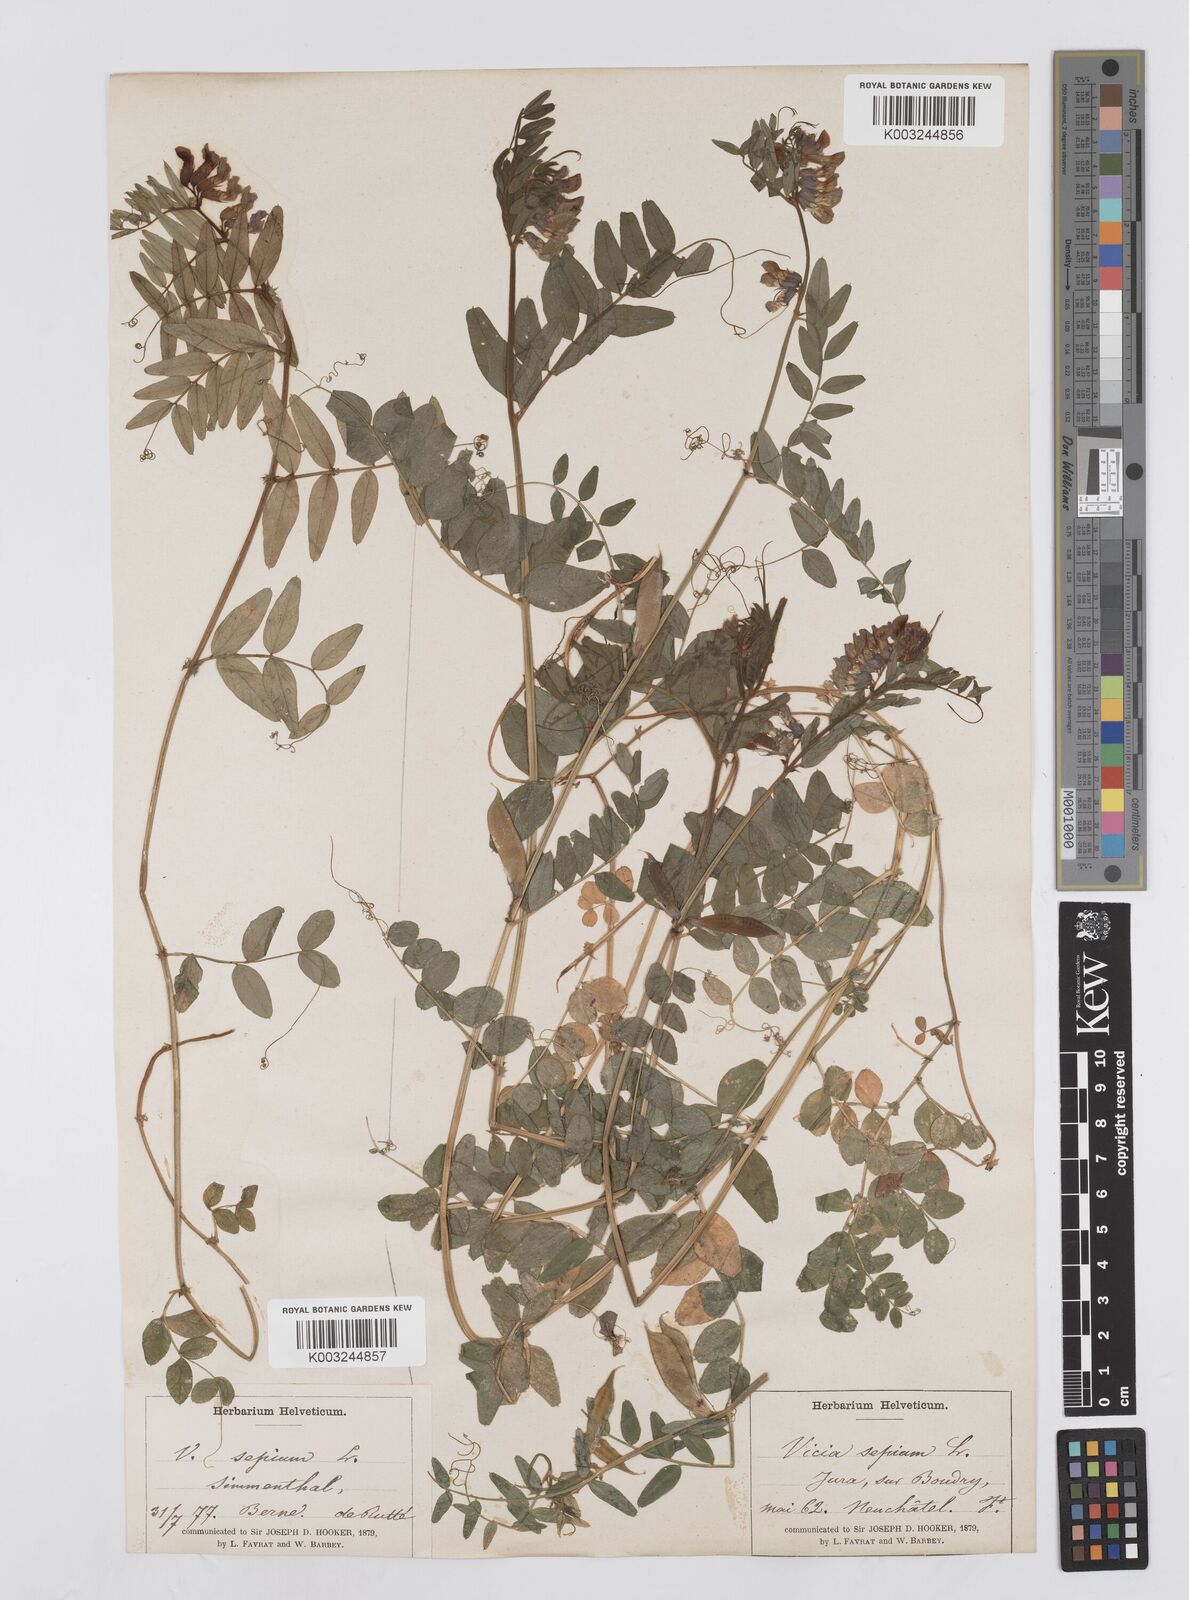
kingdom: Plantae
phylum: Tracheophyta
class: Magnoliopsida
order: Fabales
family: Fabaceae
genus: Vicia
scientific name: Vicia sepium
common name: Bush vetch
